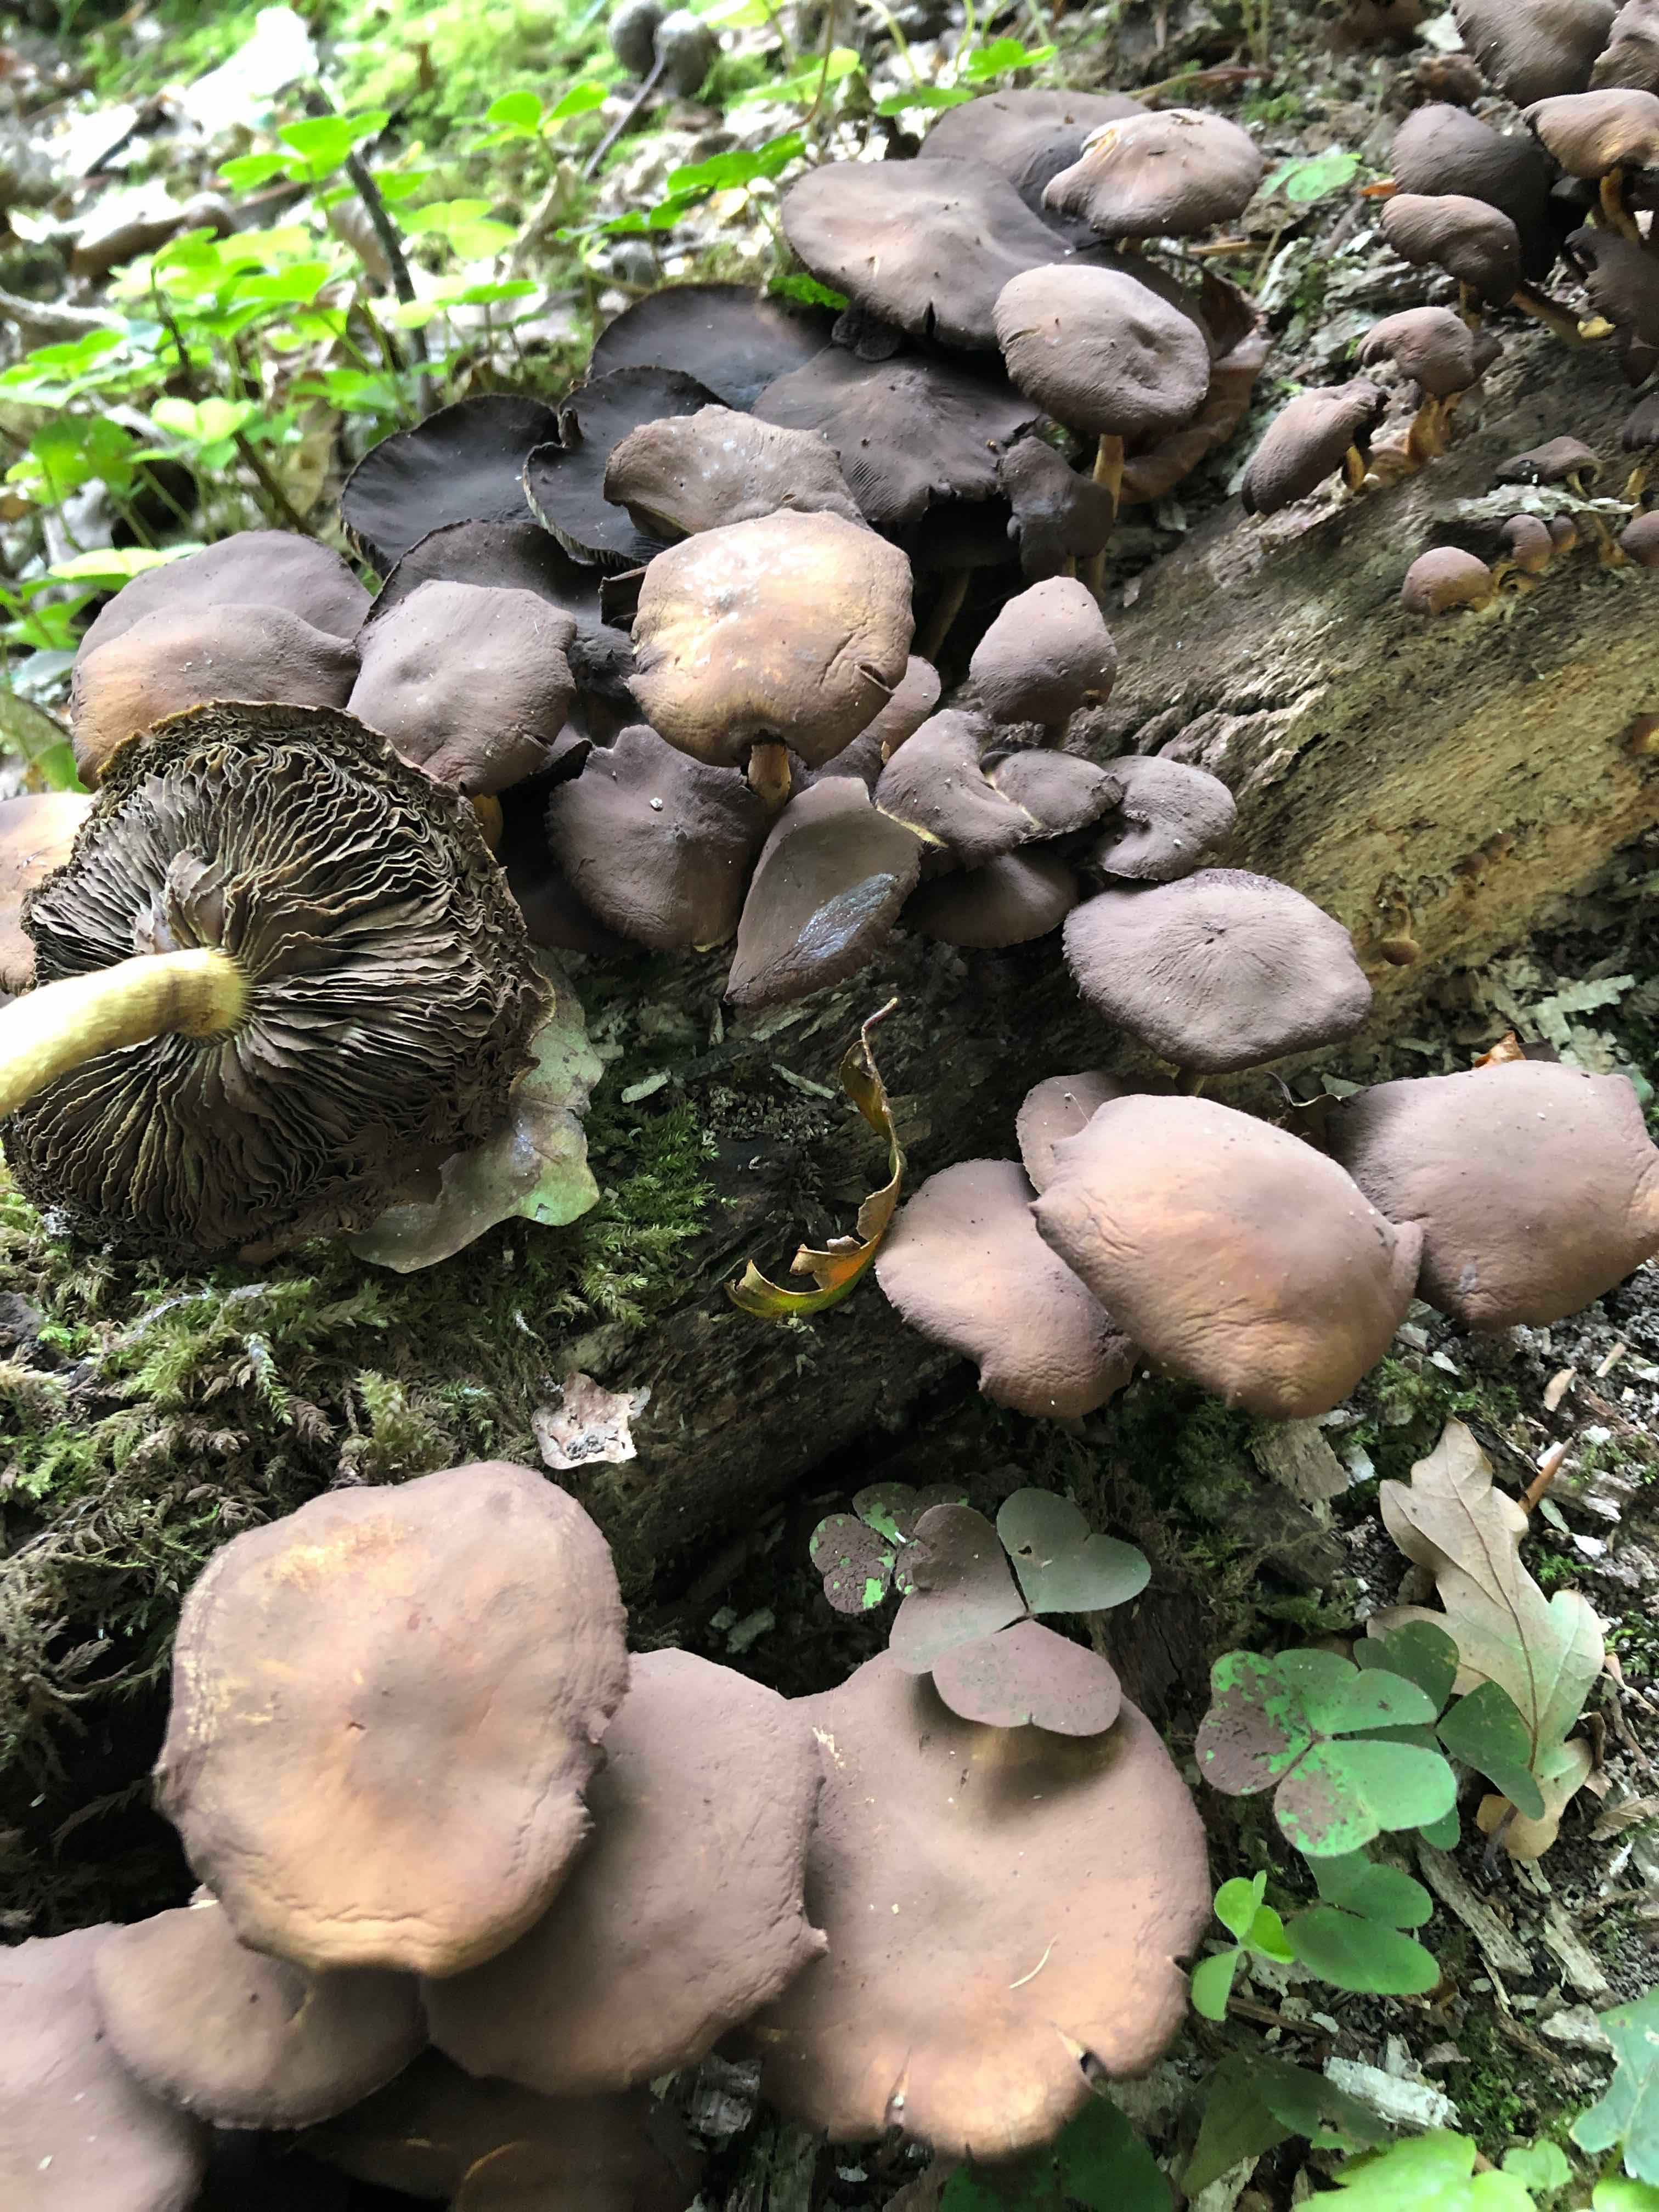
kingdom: Fungi
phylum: Basidiomycota
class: Agaricomycetes
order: Agaricales
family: Strophariaceae
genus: Hypholoma
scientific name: Hypholoma fasciculare
